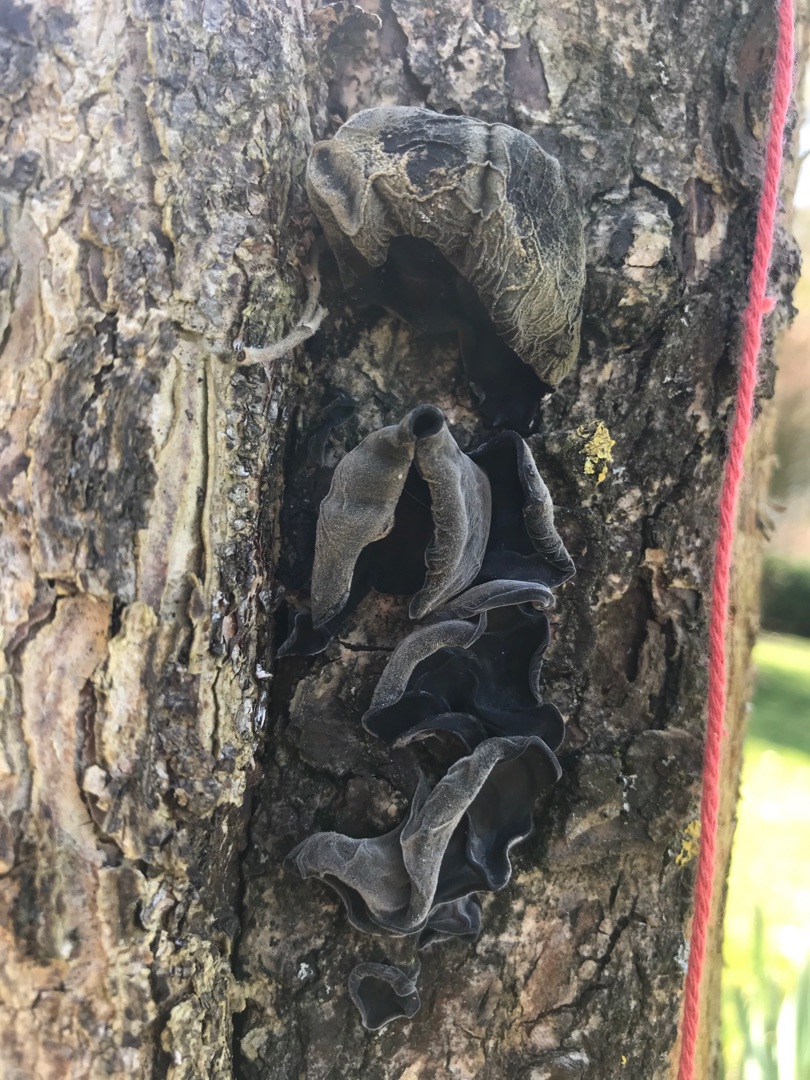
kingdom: Fungi
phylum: Basidiomycota
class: Agaricomycetes
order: Auriculariales
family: Auriculariaceae
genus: Auricularia
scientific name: Auricularia auricula-judae
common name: Almindelig judasøre
